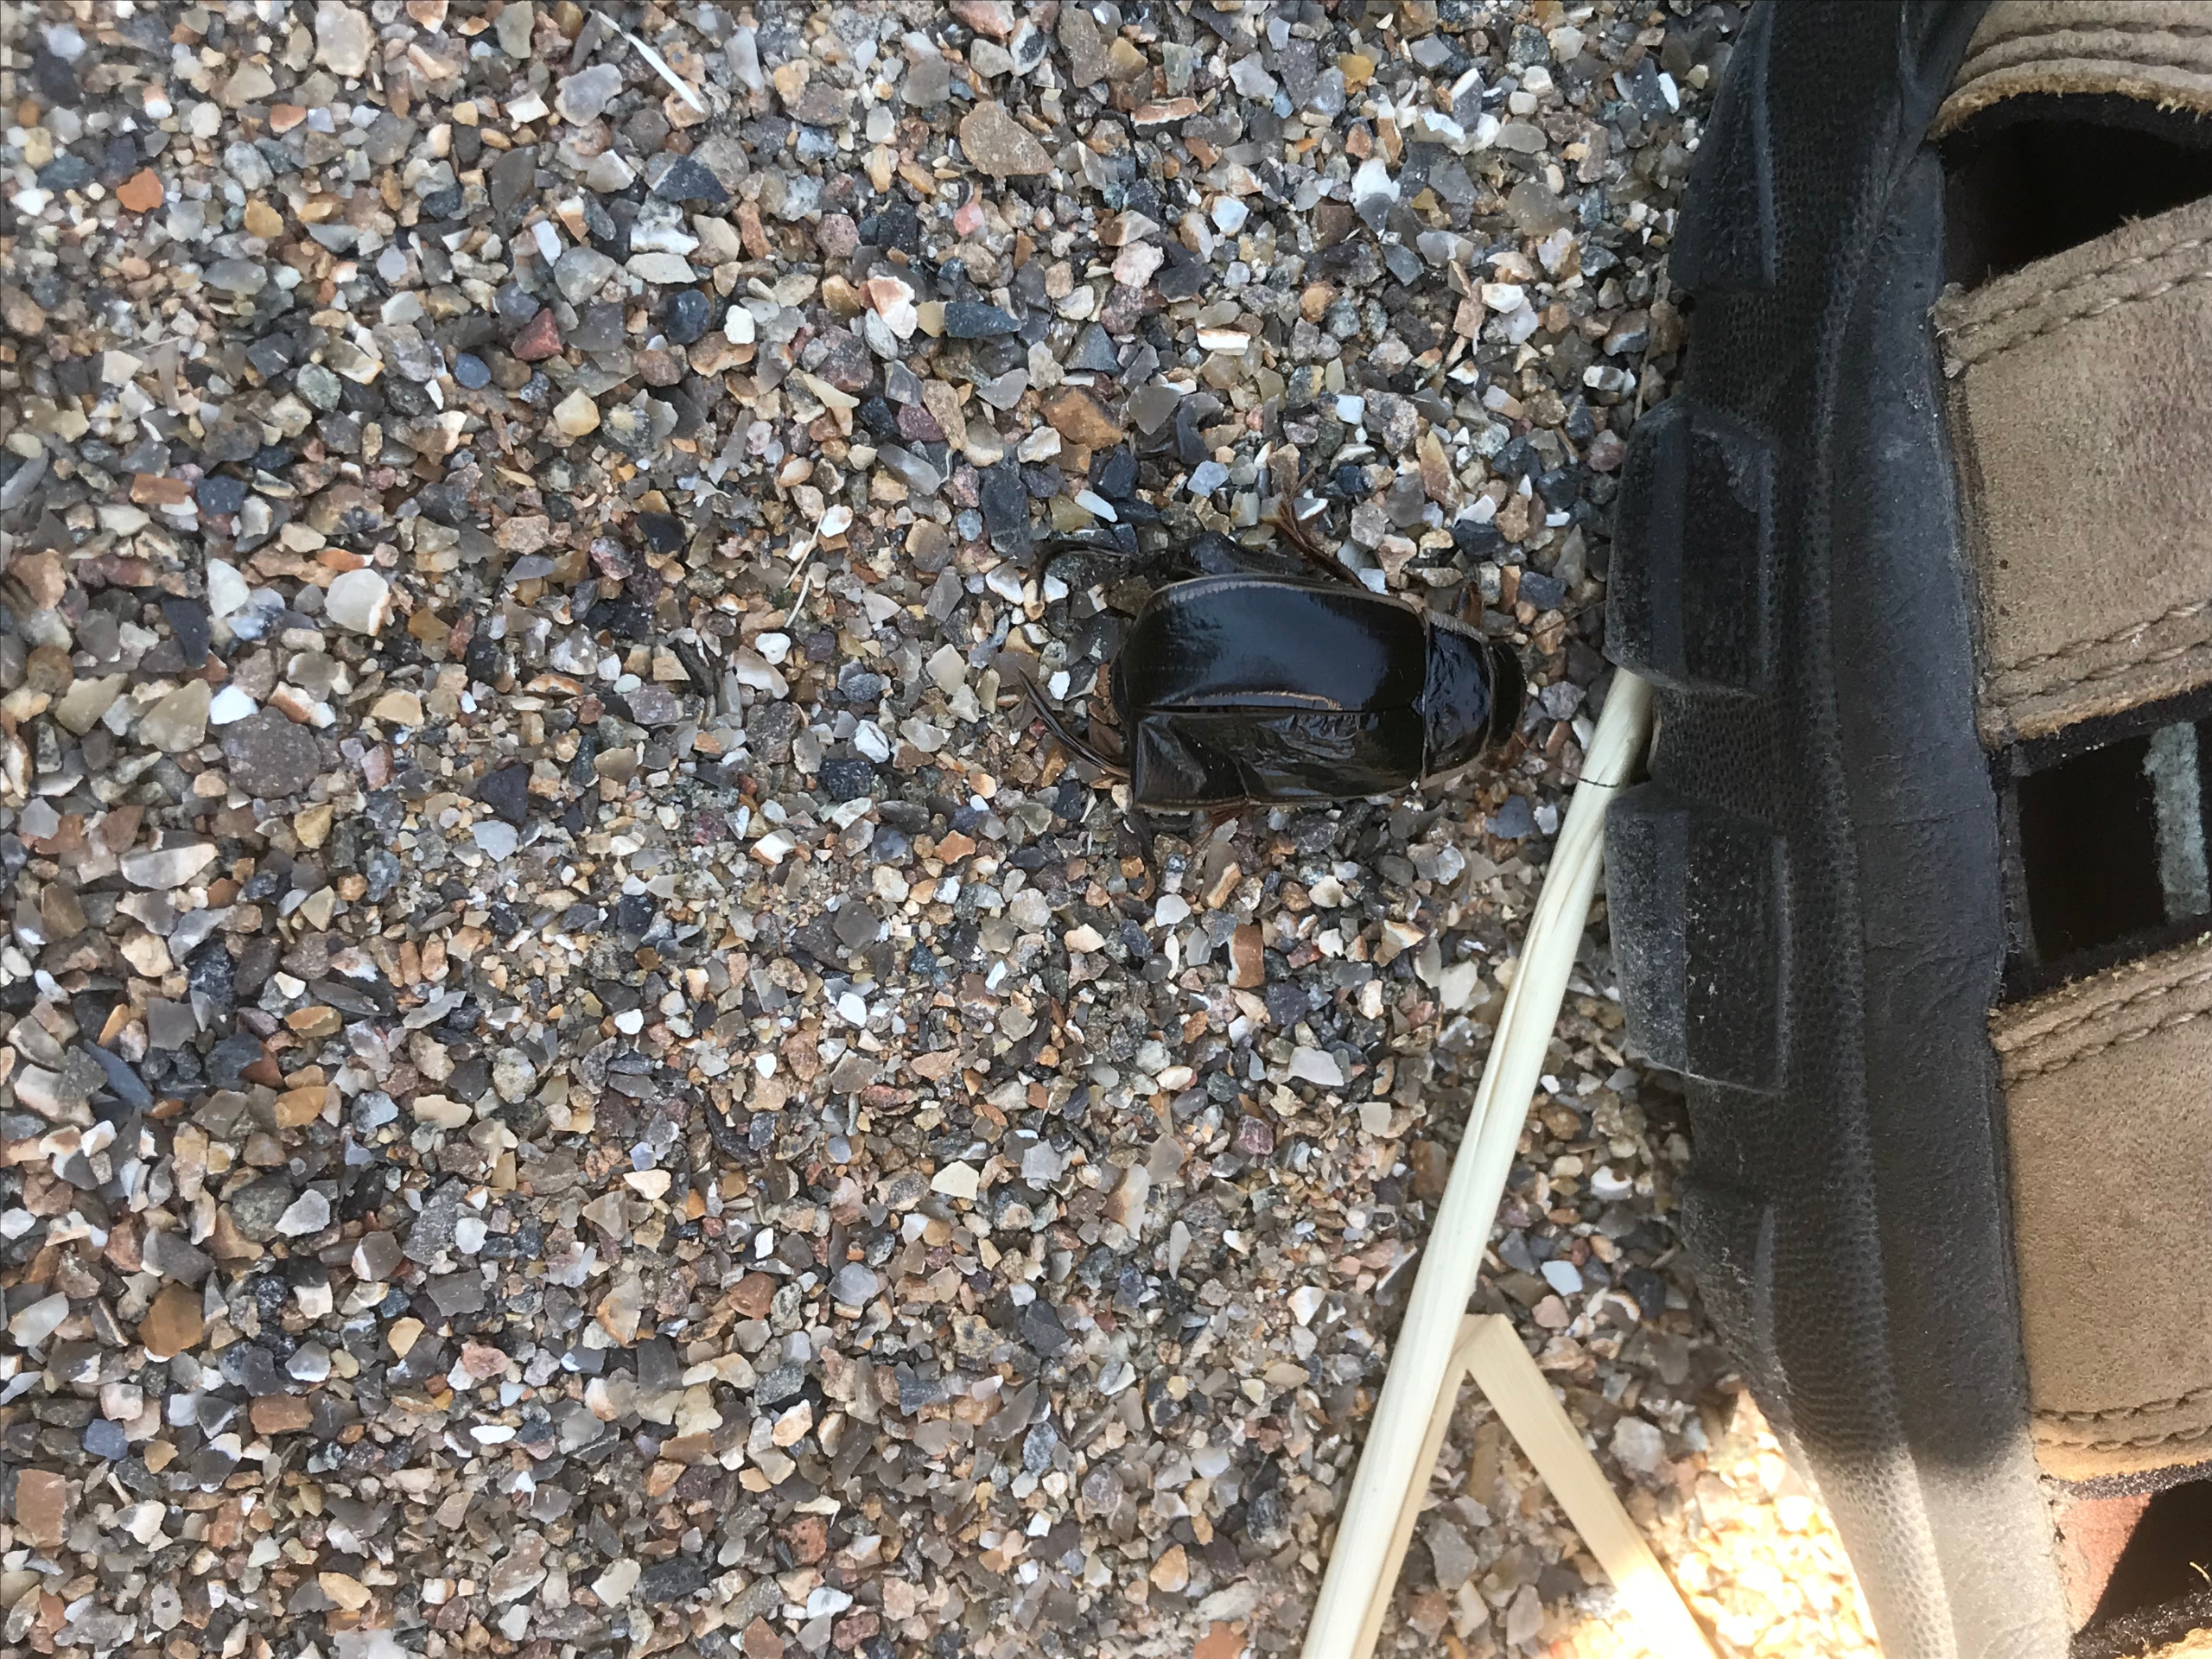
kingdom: Animalia
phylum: Arthropoda
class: Insecta
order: Coleoptera
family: Dytiscidae
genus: Dytiscus
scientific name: Dytiscus circumcinctus
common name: Brillevandkalv
